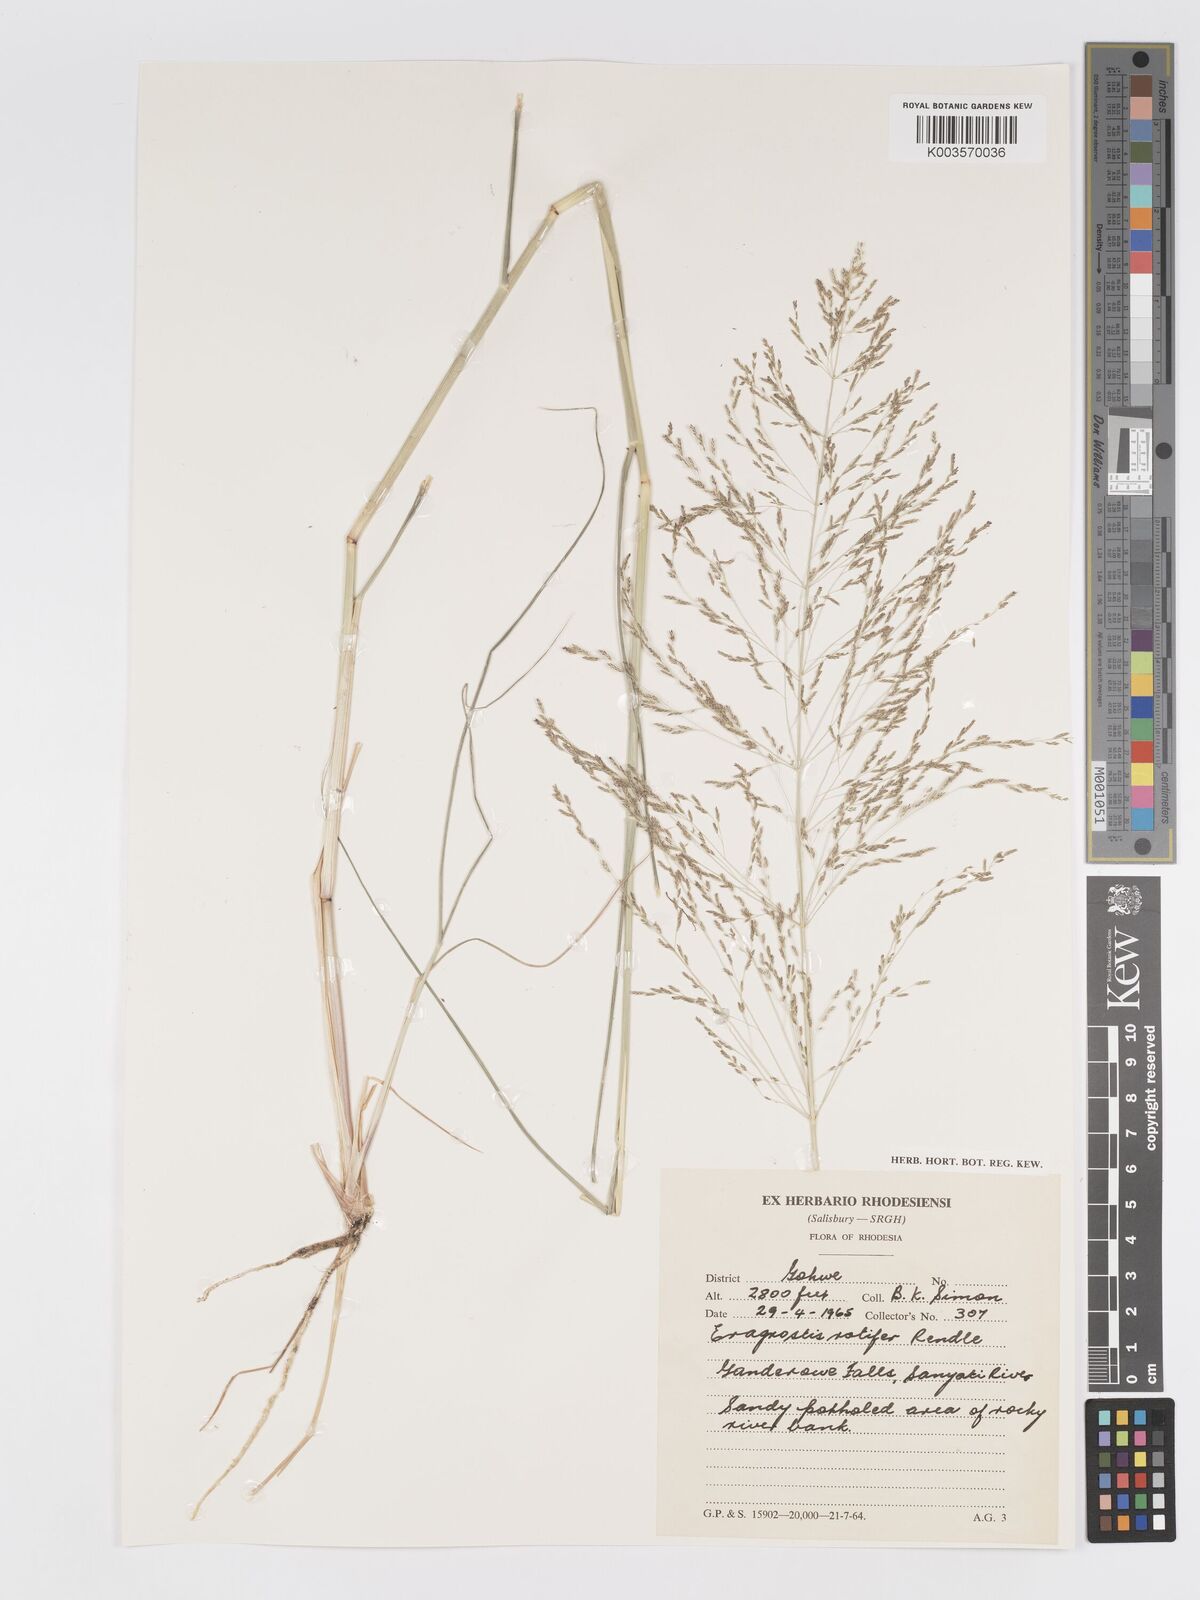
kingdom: Plantae
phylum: Tracheophyta
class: Liliopsida
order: Poales
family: Poaceae
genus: Eragrostis
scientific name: Eragrostis rotifer
